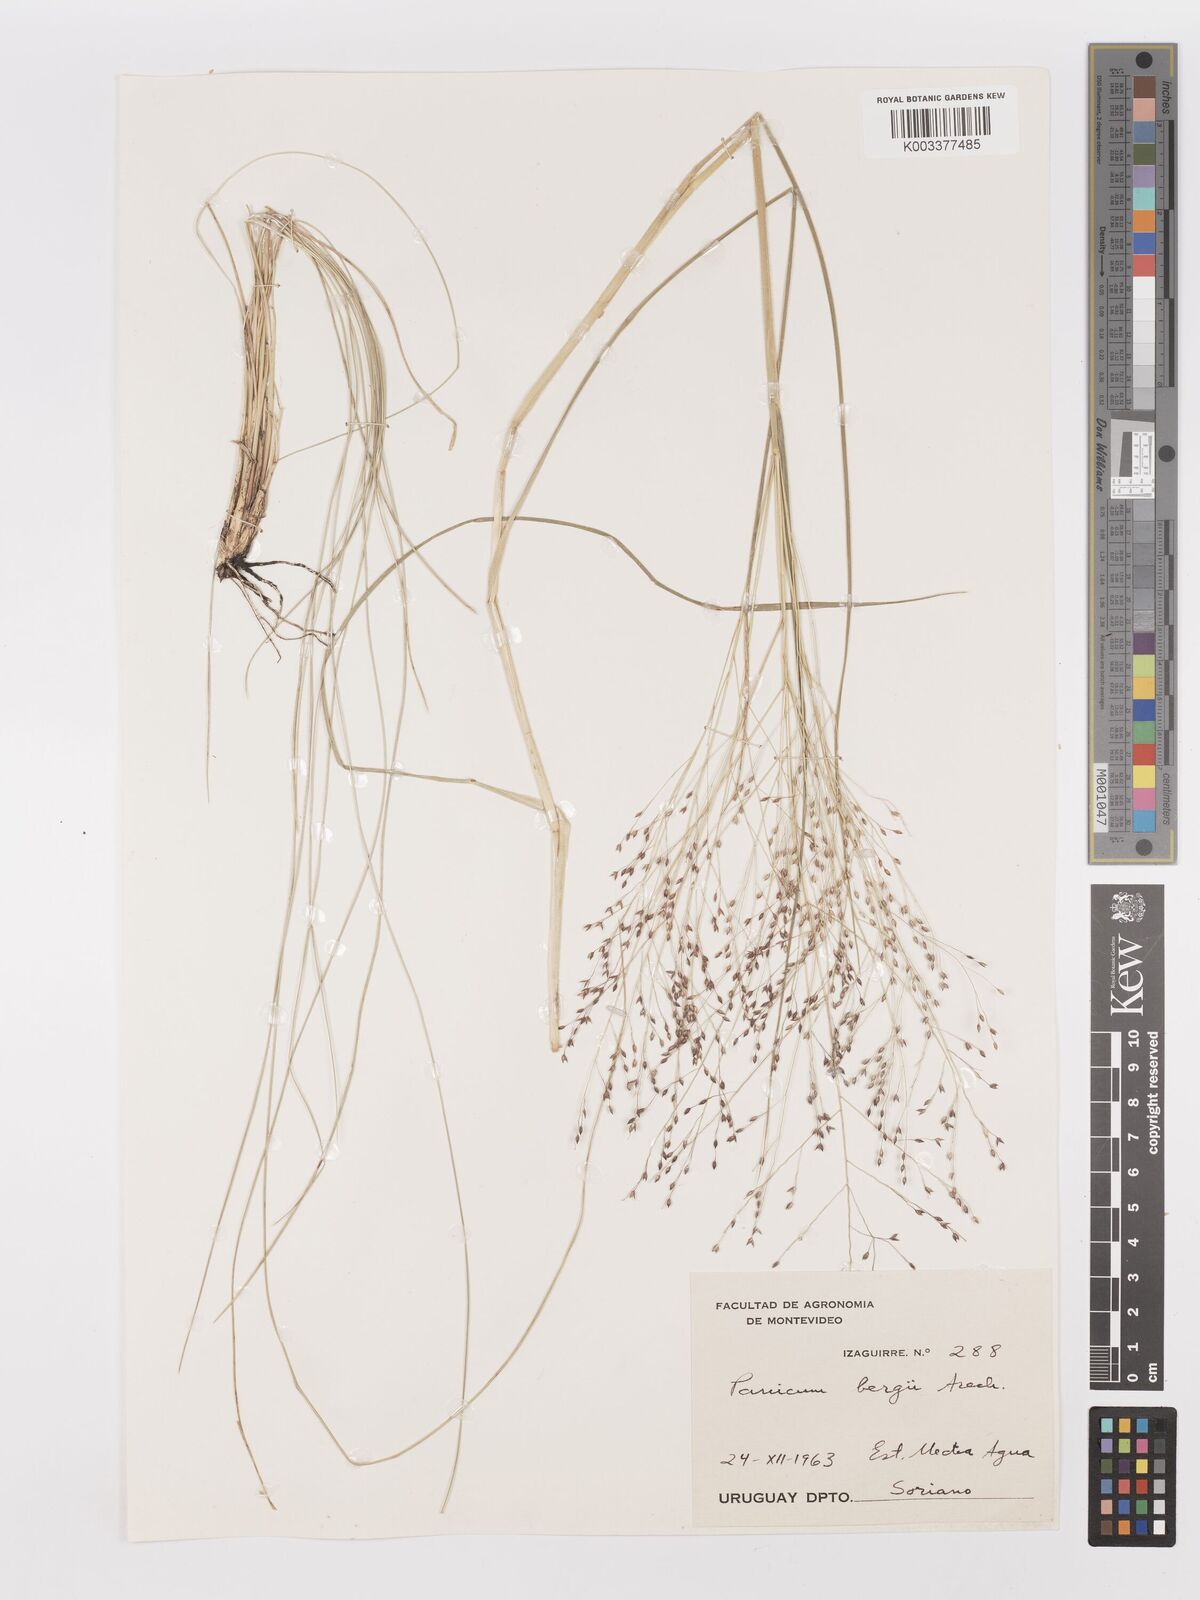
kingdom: Plantae
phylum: Tracheophyta
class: Liliopsida
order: Poales
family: Poaceae
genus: Panicum
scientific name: Panicum bergii
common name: Berg's panicgrass
